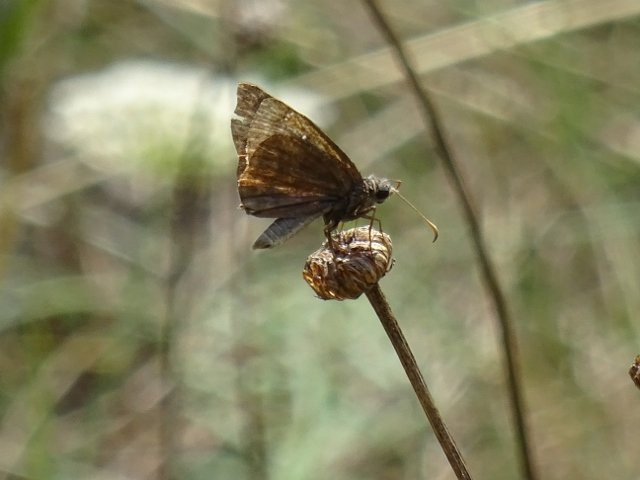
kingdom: Animalia
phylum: Arthropoda
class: Insecta
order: Lepidoptera
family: Hesperiidae
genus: Gesta
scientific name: Gesta
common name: Columbine Duskywing
